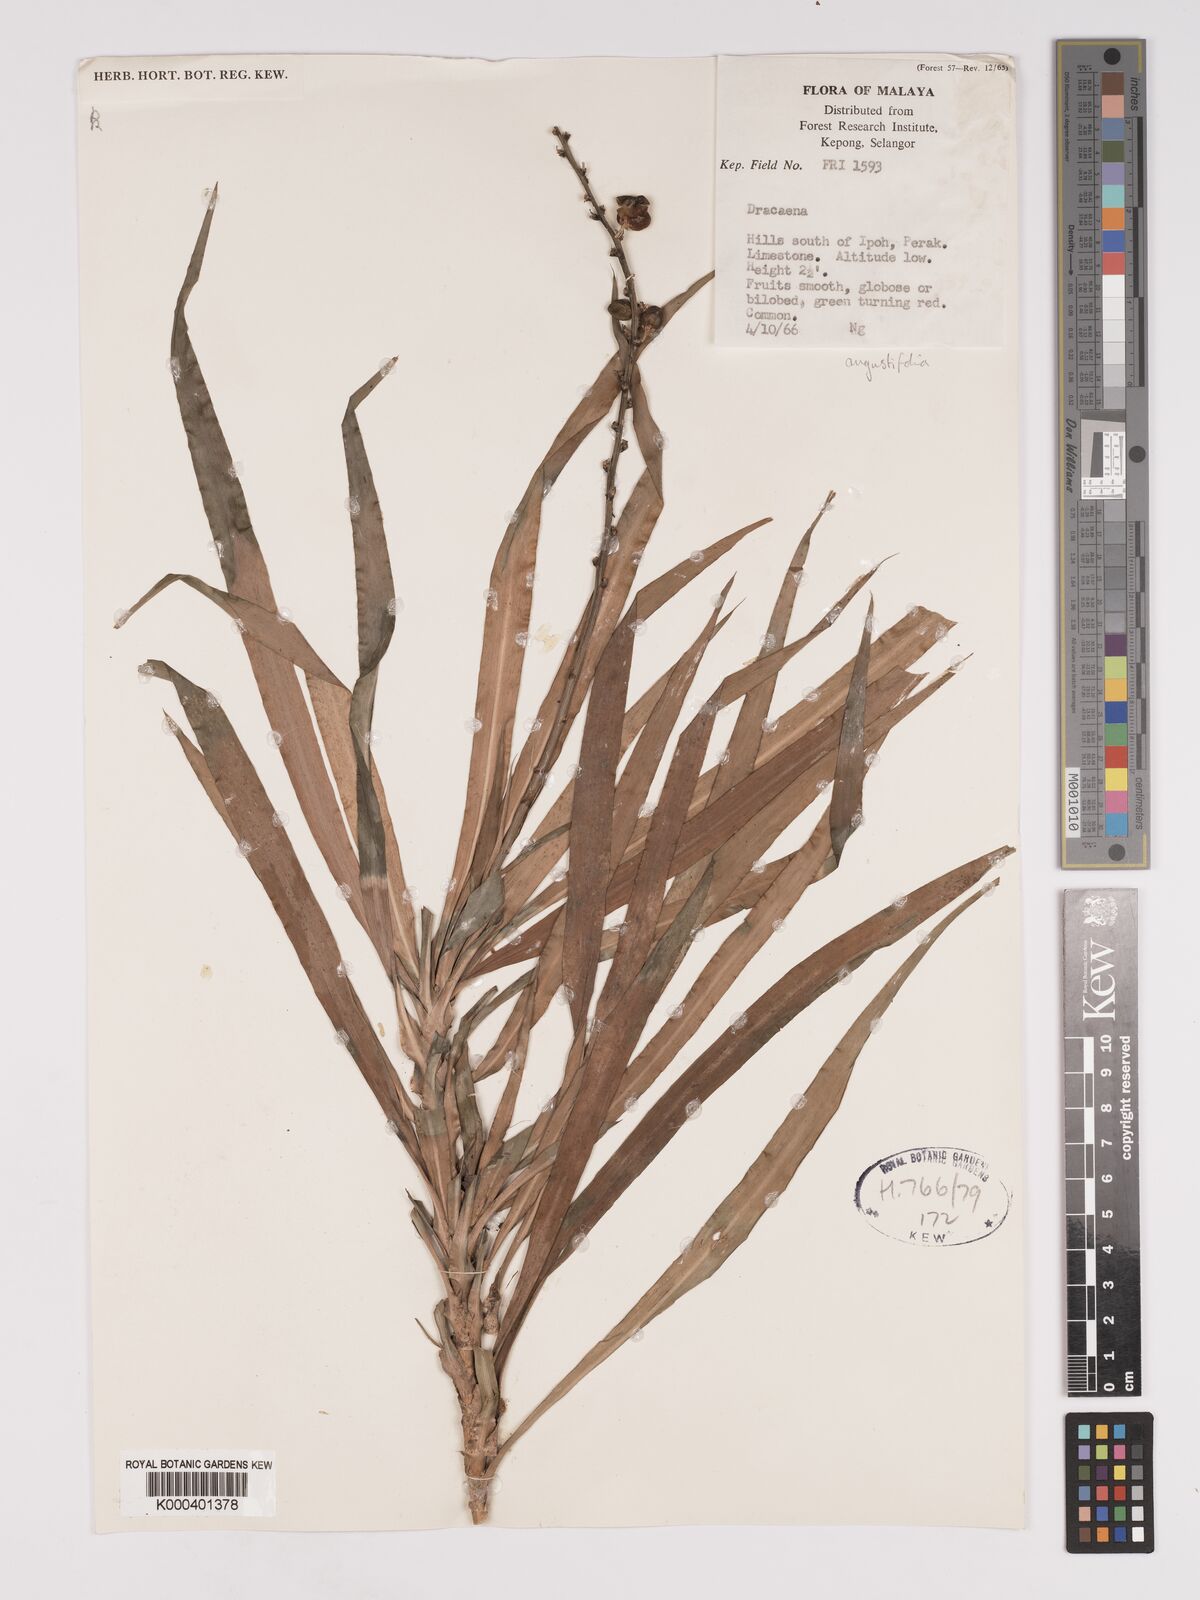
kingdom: Plantae
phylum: Tracheophyta
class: Liliopsida
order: Asparagales
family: Asparagaceae
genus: Dracaena
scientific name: Dracaena angustifolia
